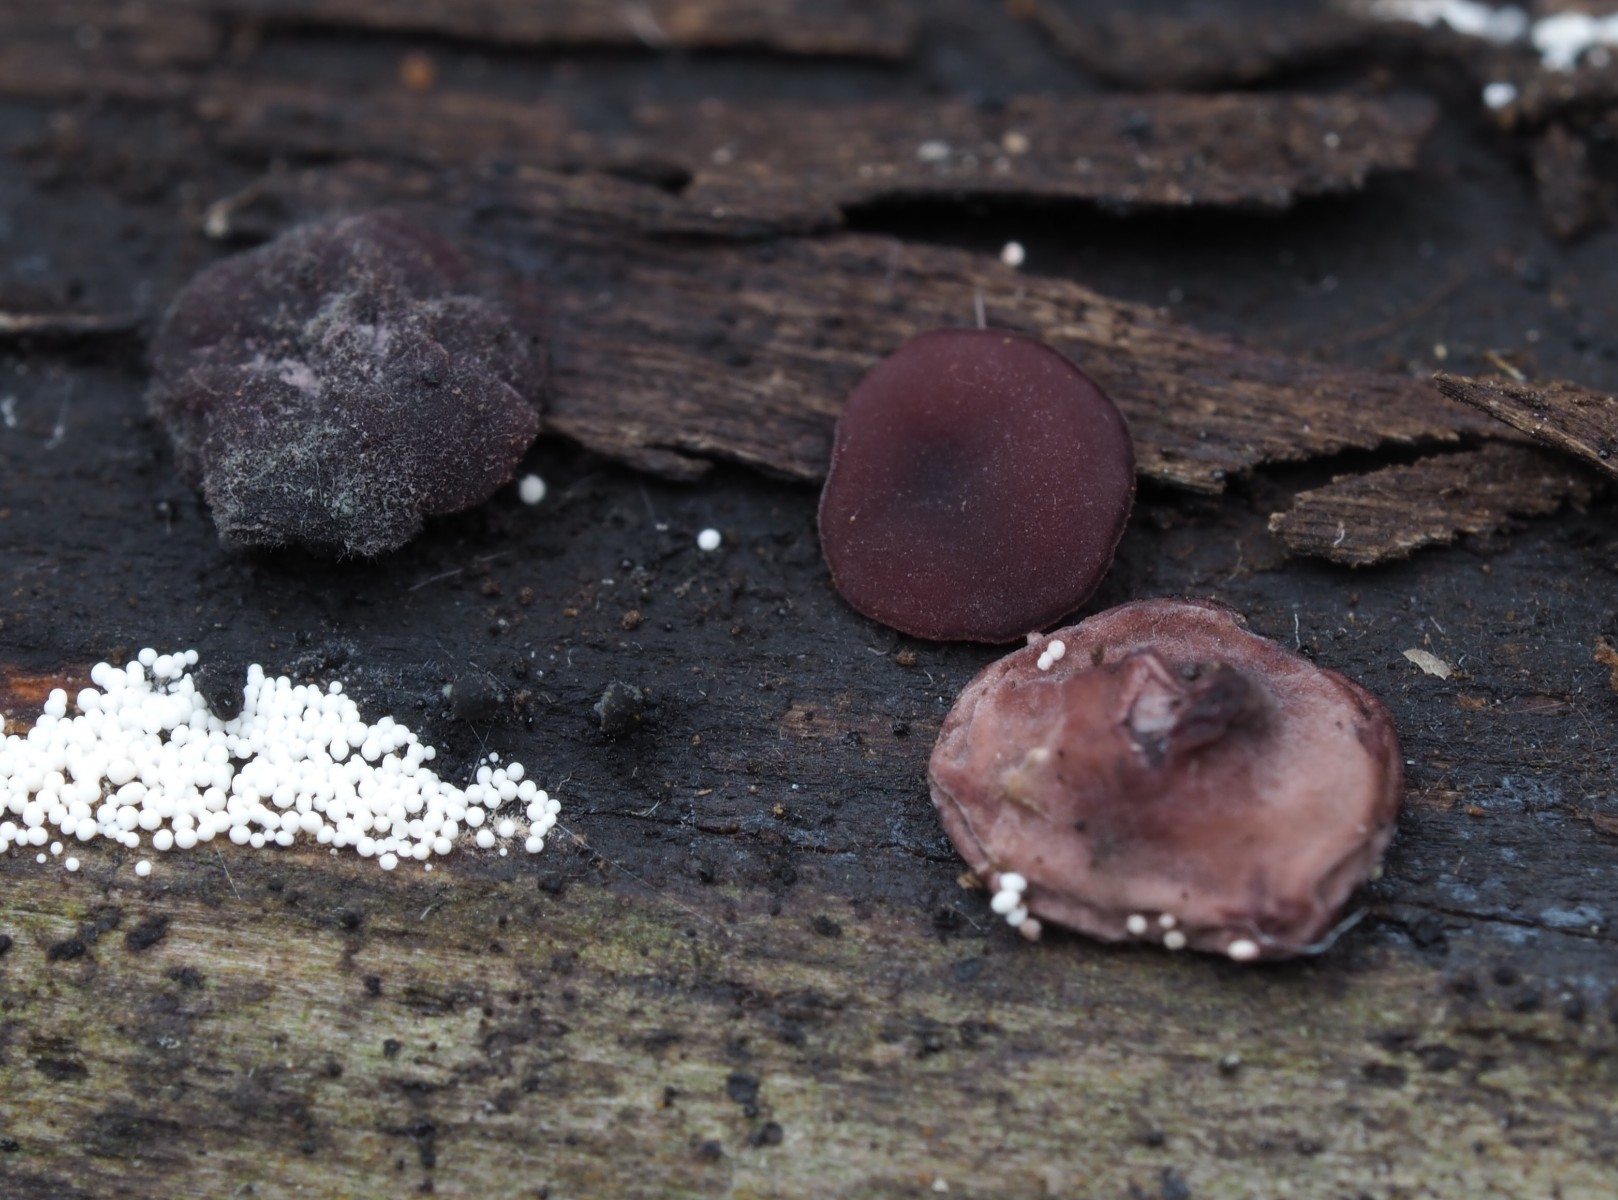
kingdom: Fungi
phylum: Ascomycota
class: Leotiomycetes
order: Helotiales
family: Gelatinodiscaceae
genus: Ascocoryne
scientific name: Ascocoryne
